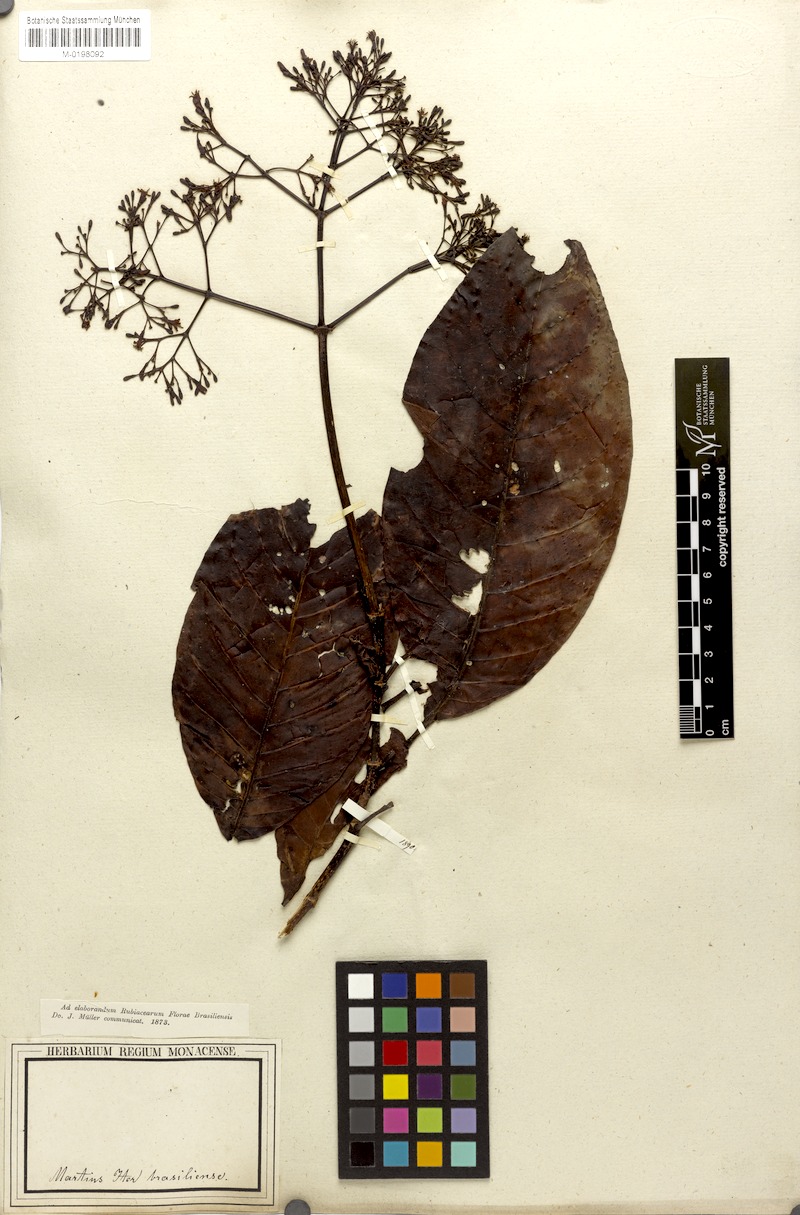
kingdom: Plantae
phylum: Tracheophyta
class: Magnoliopsida
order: Gentianales
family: Rubiaceae
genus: Psychotria
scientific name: Psychotria pedunculosa
